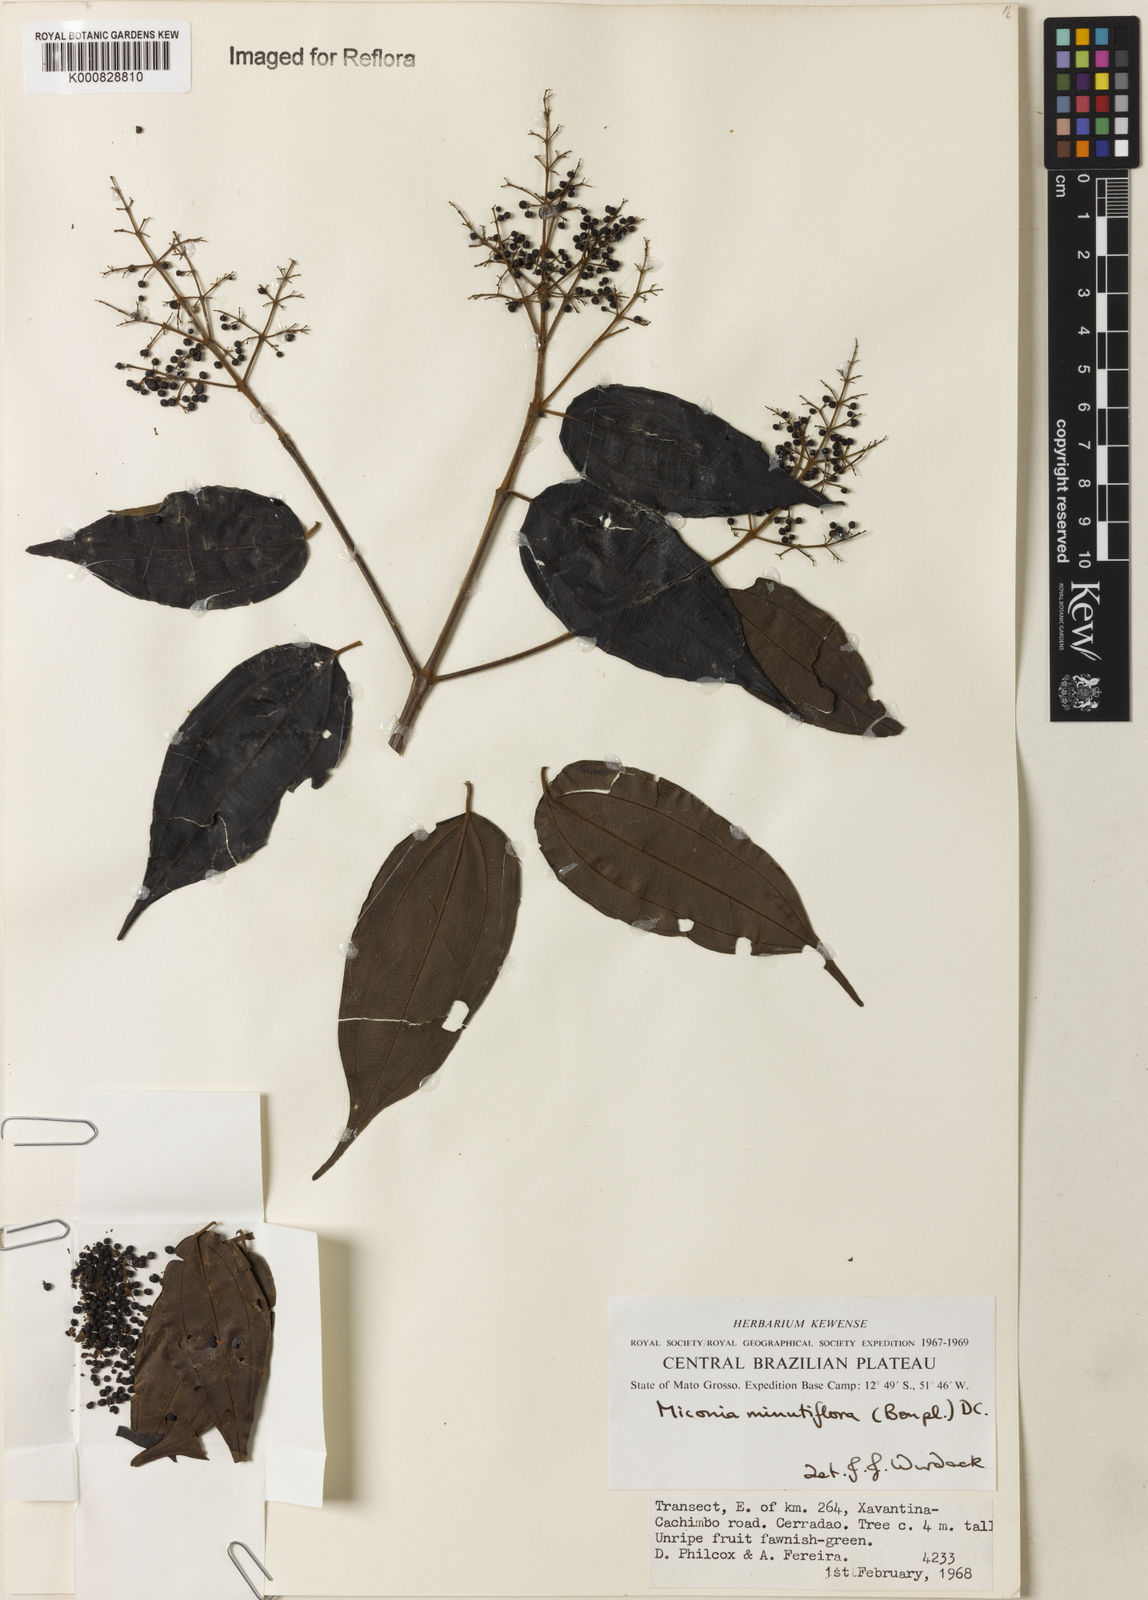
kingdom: Plantae
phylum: Tracheophyta
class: Magnoliopsida
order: Myrtales
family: Melastomataceae
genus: Miconia
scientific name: Miconia minutiflora
